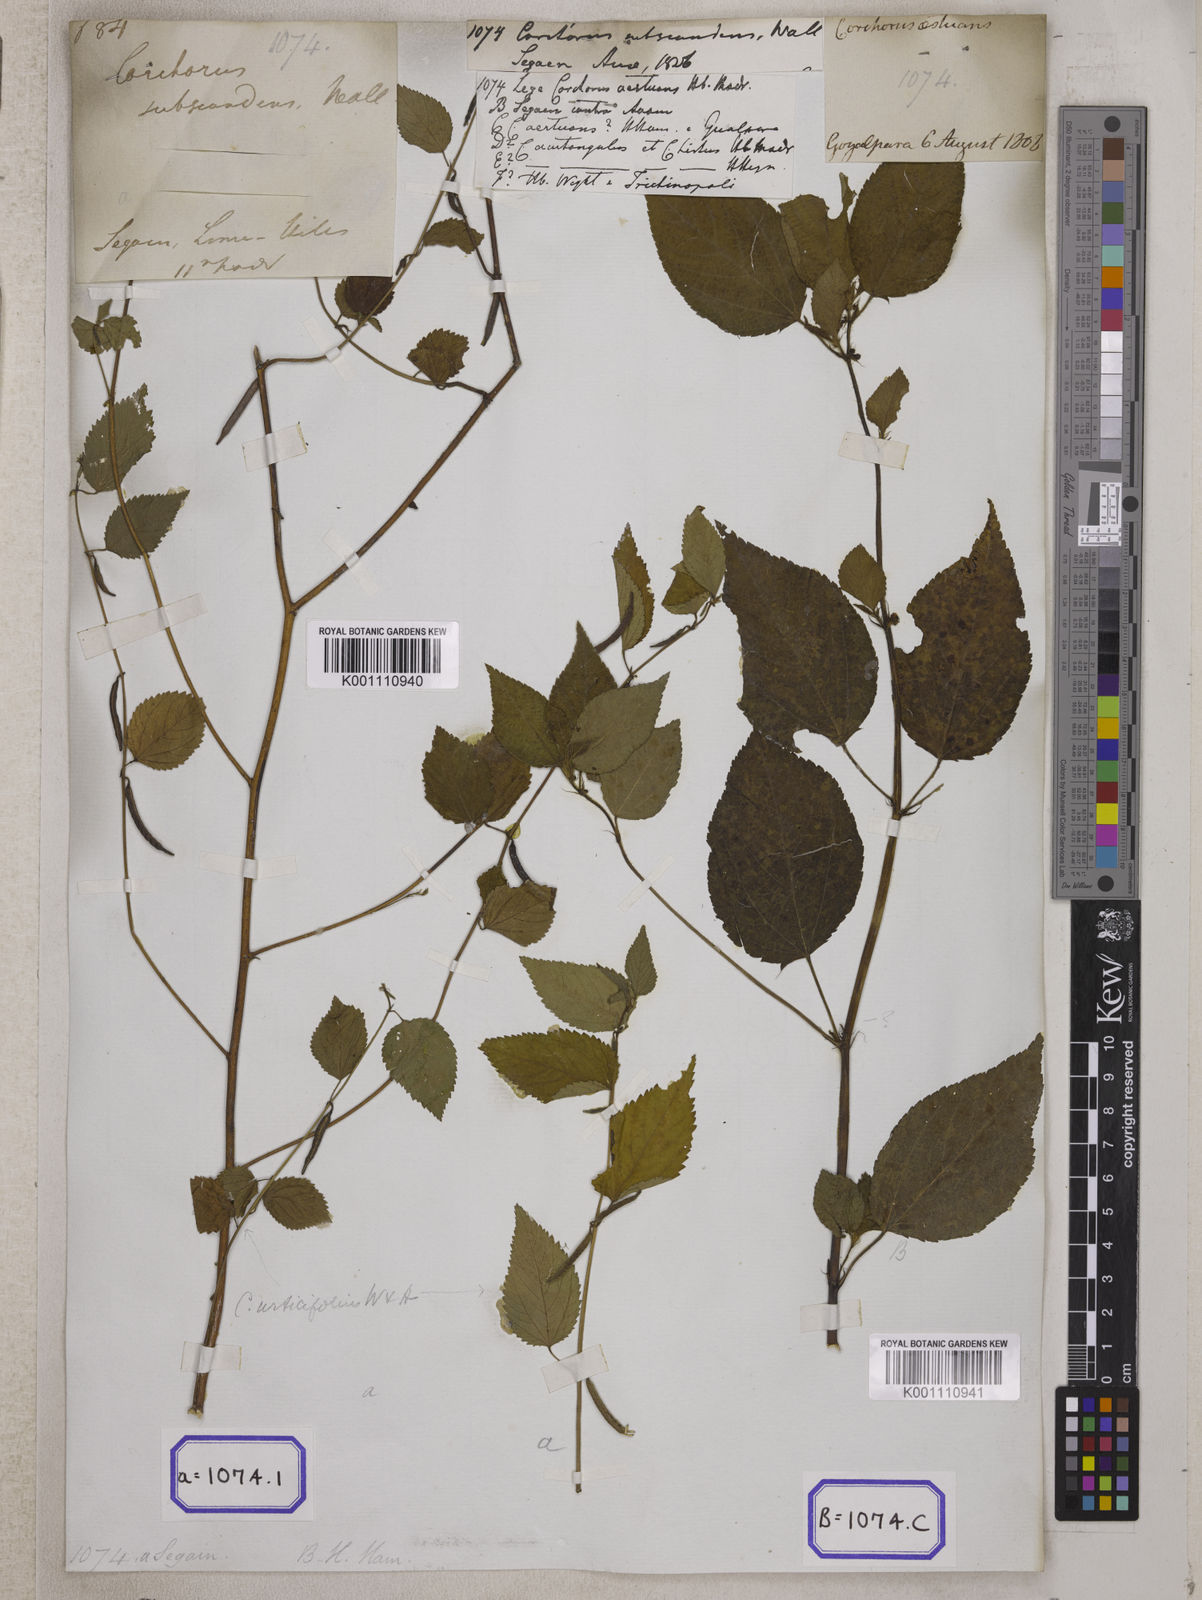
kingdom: Plantae
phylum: Tracheophyta
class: Magnoliopsida
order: Malvales
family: Malvaceae
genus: Corchorus
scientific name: Corchorus urticifolius
